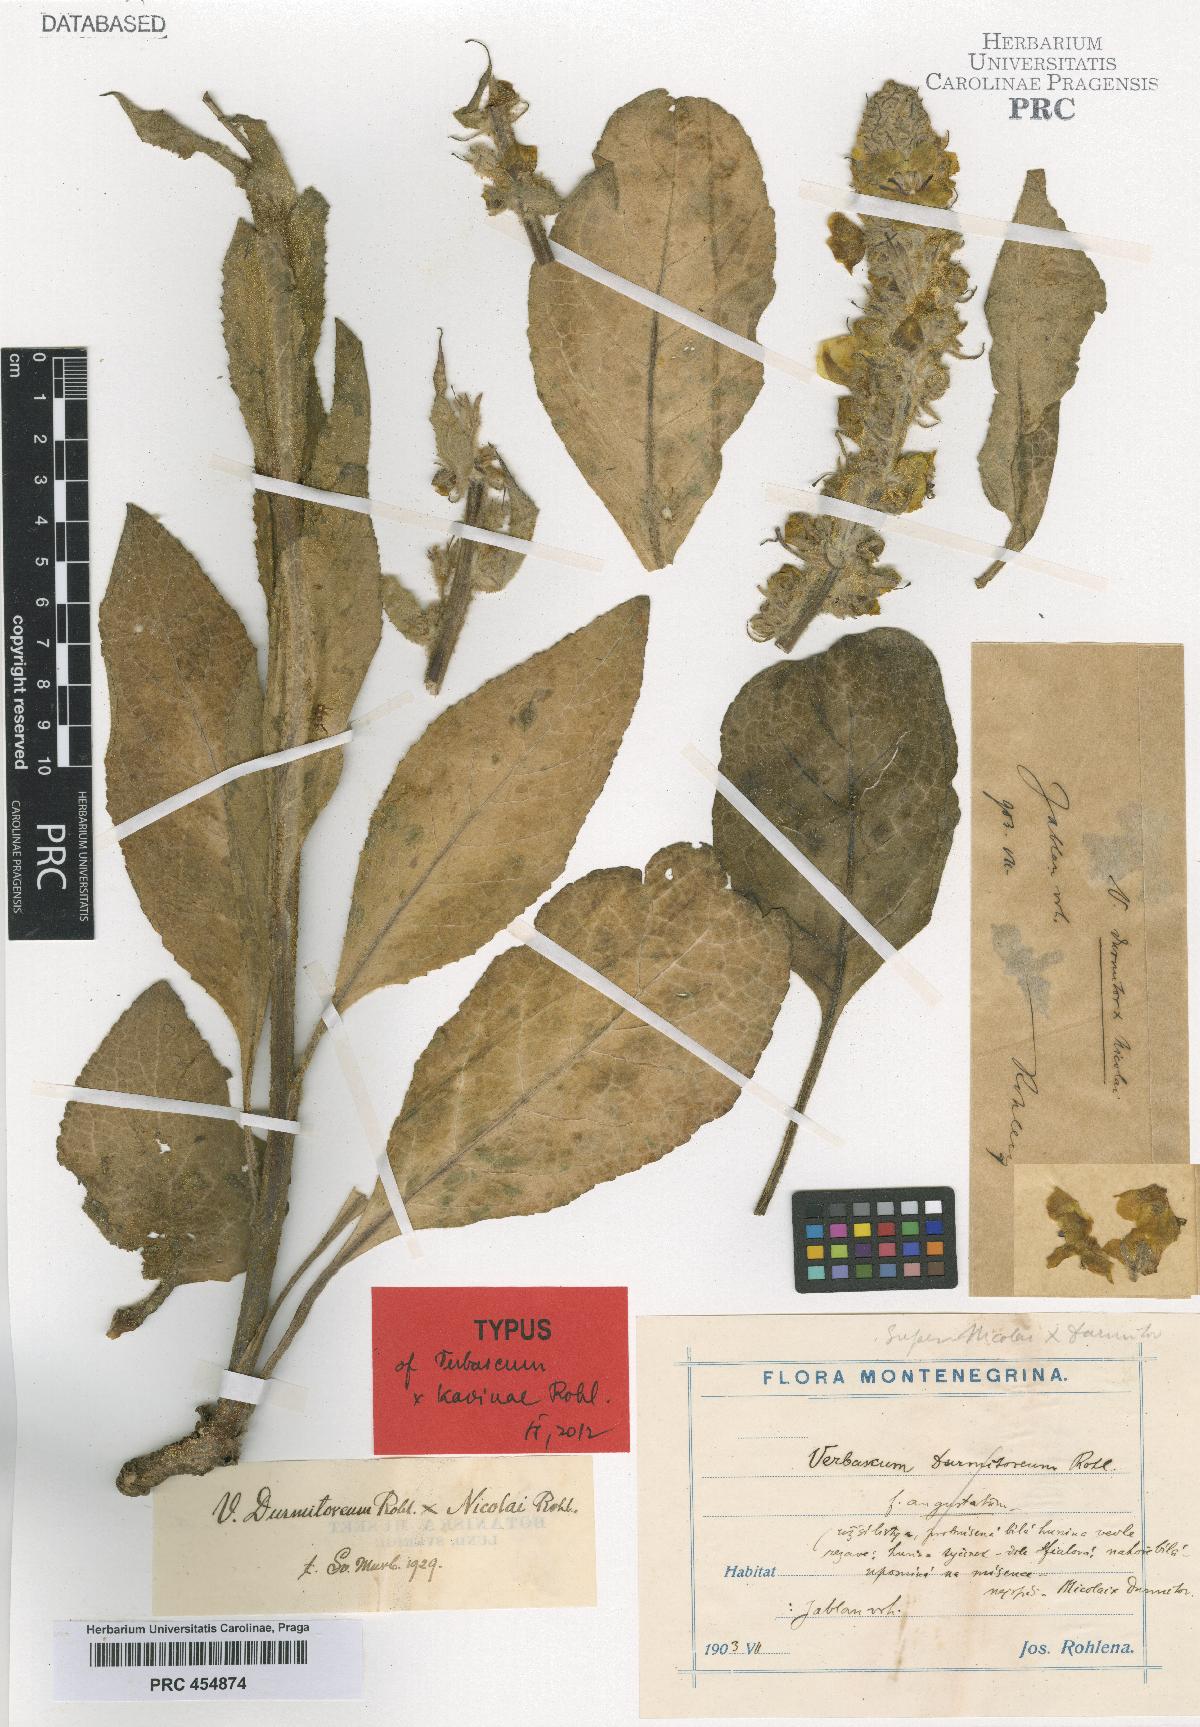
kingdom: Plantae
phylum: Tracheophyta
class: Magnoliopsida
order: Lamiales
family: Scrophulariaceae
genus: Verbascum
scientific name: Verbascum kavinae
